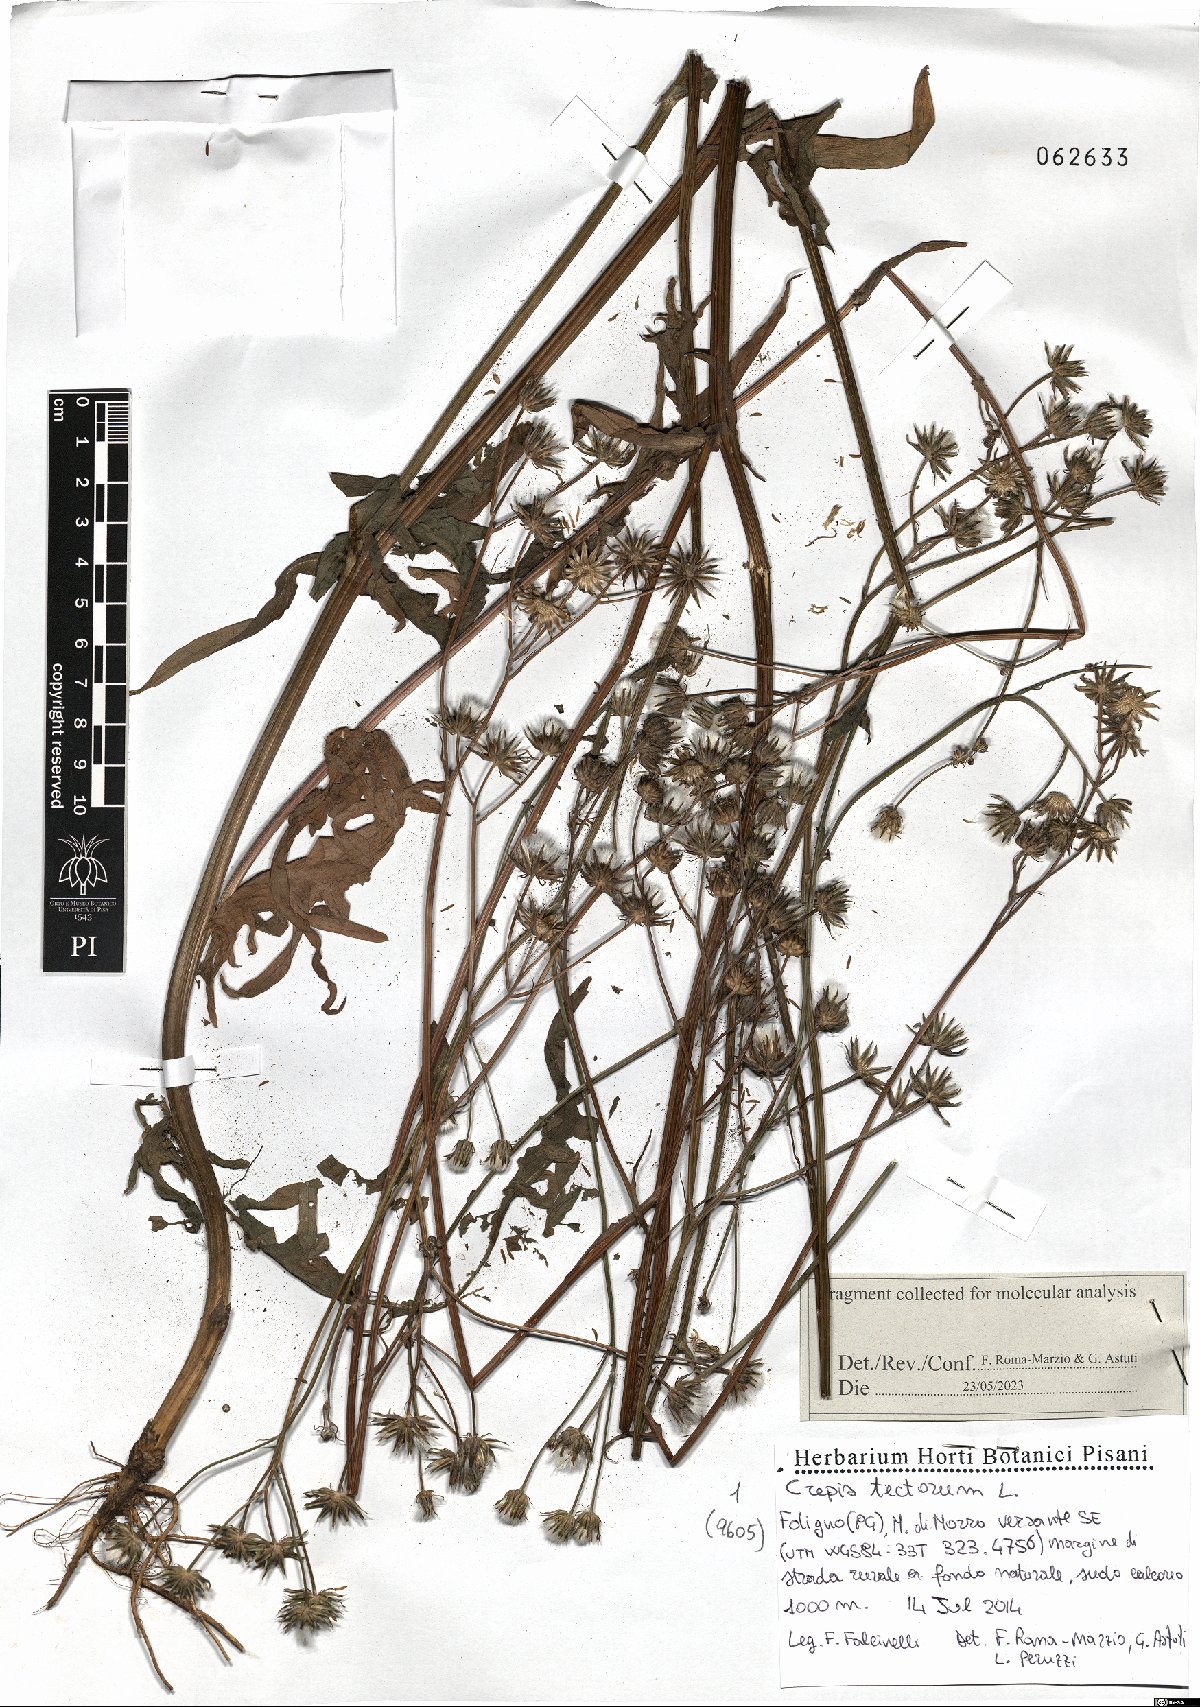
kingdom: Plantae
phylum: Tracheophyta
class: Magnoliopsida
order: Asterales
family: Asteraceae
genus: Crepis
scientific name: Crepis tectorum
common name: Narrow-leaved hawk's-beard
